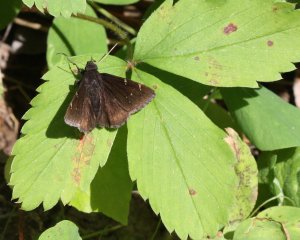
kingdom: Animalia
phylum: Arthropoda
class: Insecta
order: Lepidoptera
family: Hesperiidae
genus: Autochton
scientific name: Autochton
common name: Northern Cloudywing
